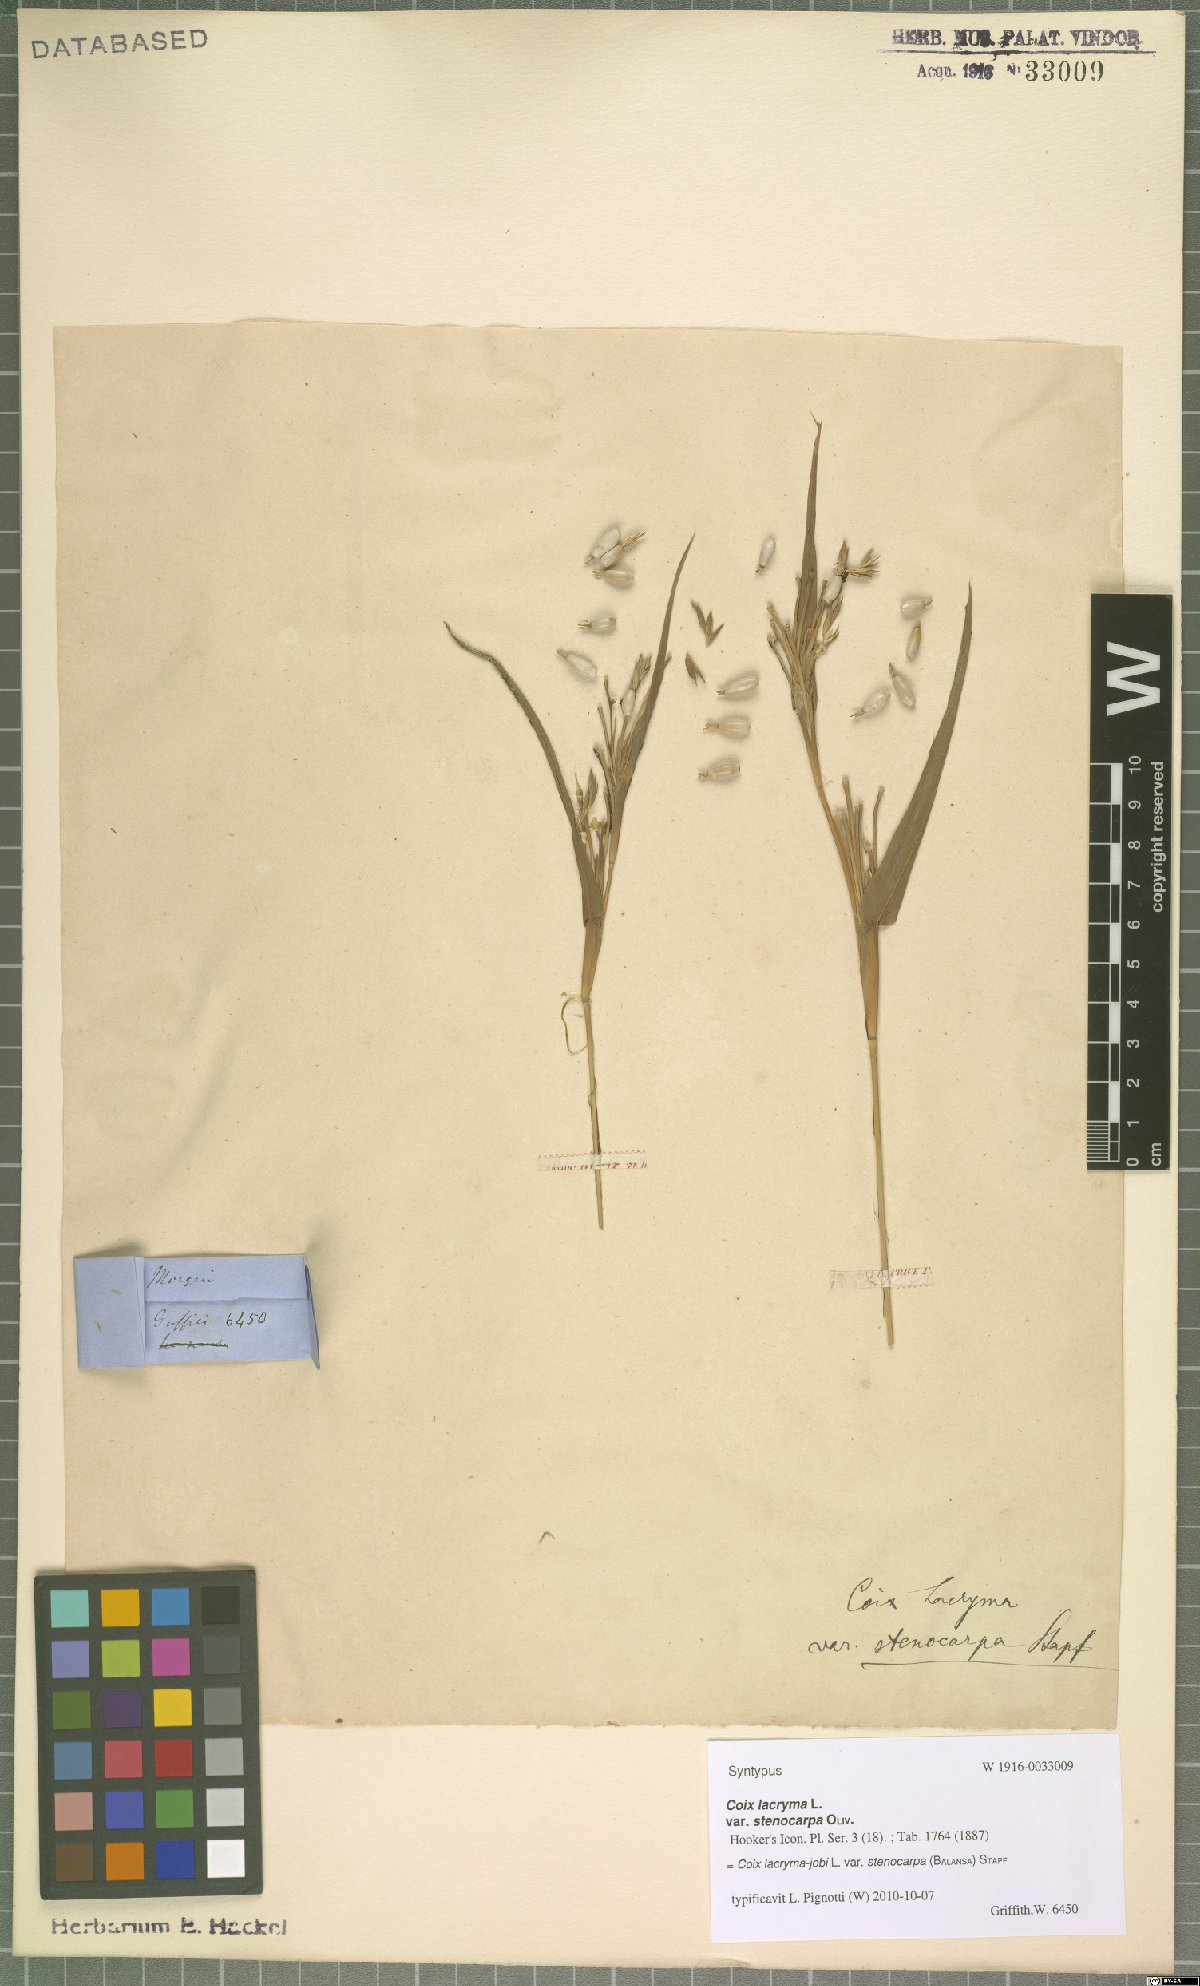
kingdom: Plantae
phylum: Tracheophyta
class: Liliopsida
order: Poales
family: Poaceae
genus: Coix
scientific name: Coix lacryma-jobi
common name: Job's tears
